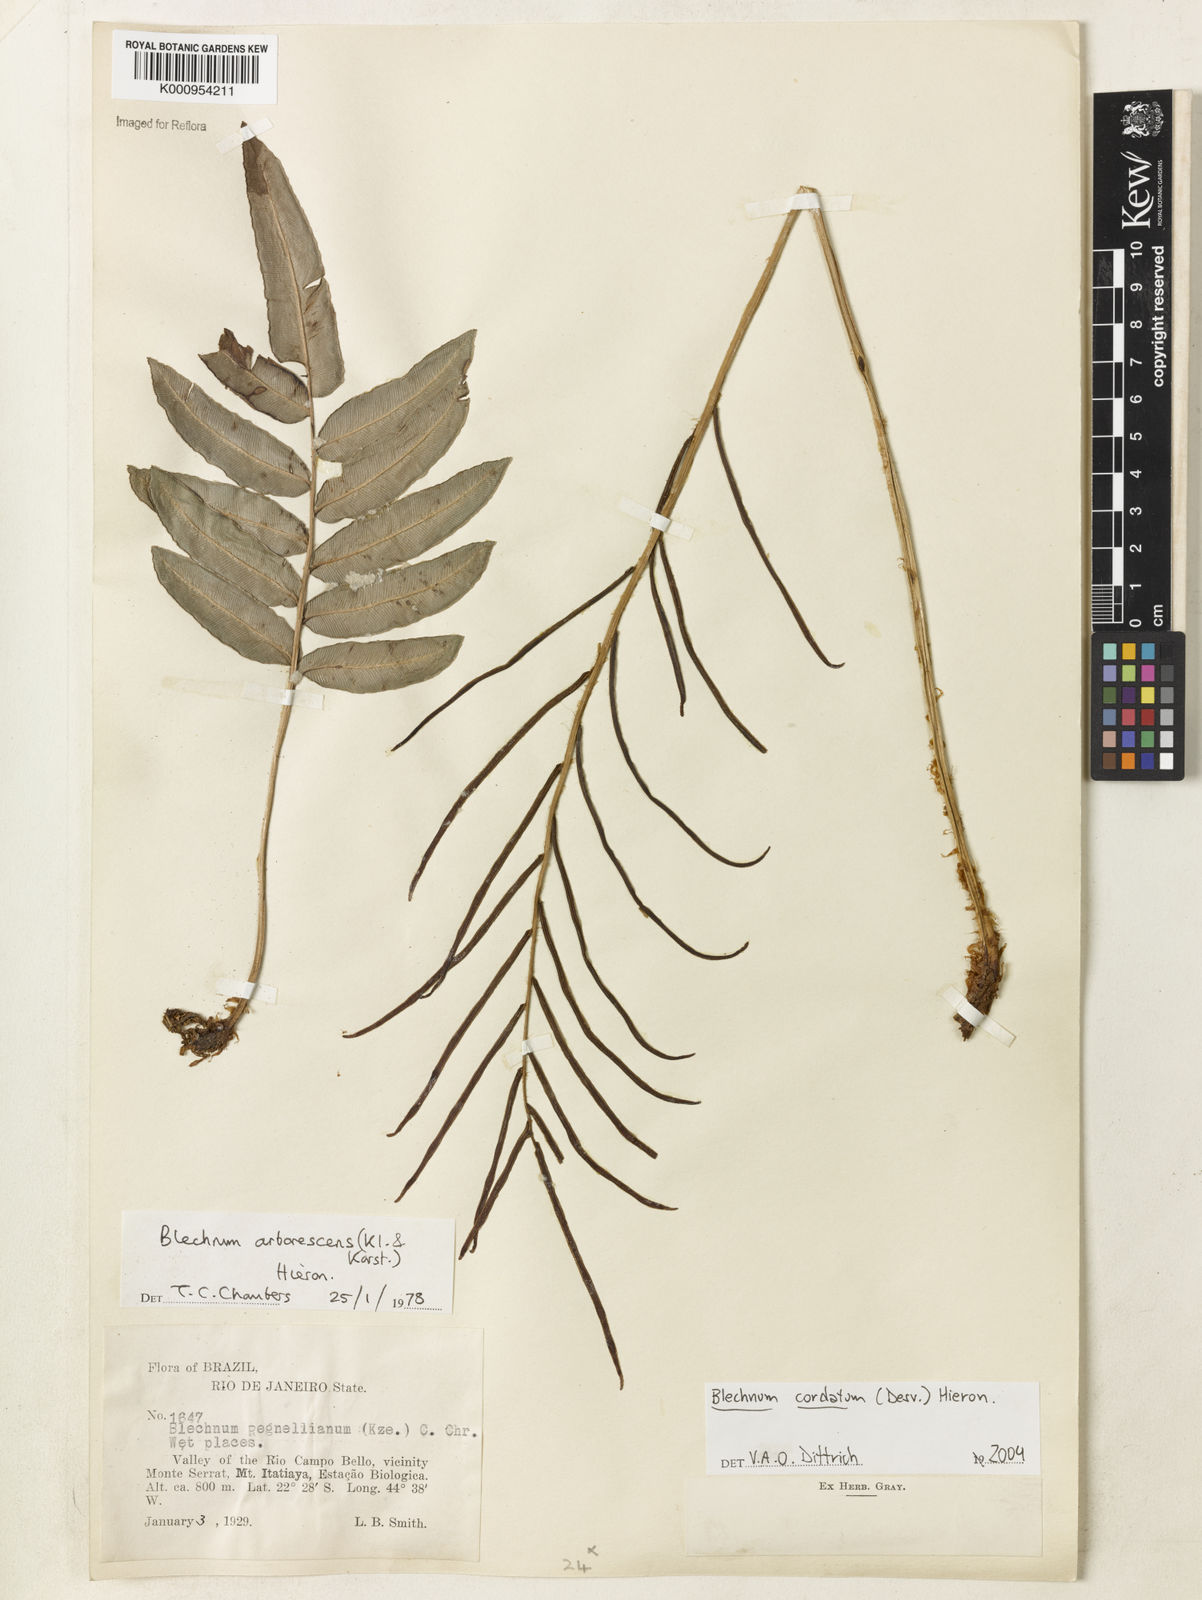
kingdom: Plantae
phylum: Tracheophyta
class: Polypodiopsida
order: Polypodiales
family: Blechnaceae
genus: Parablechnum
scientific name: Parablechnum cordatum
